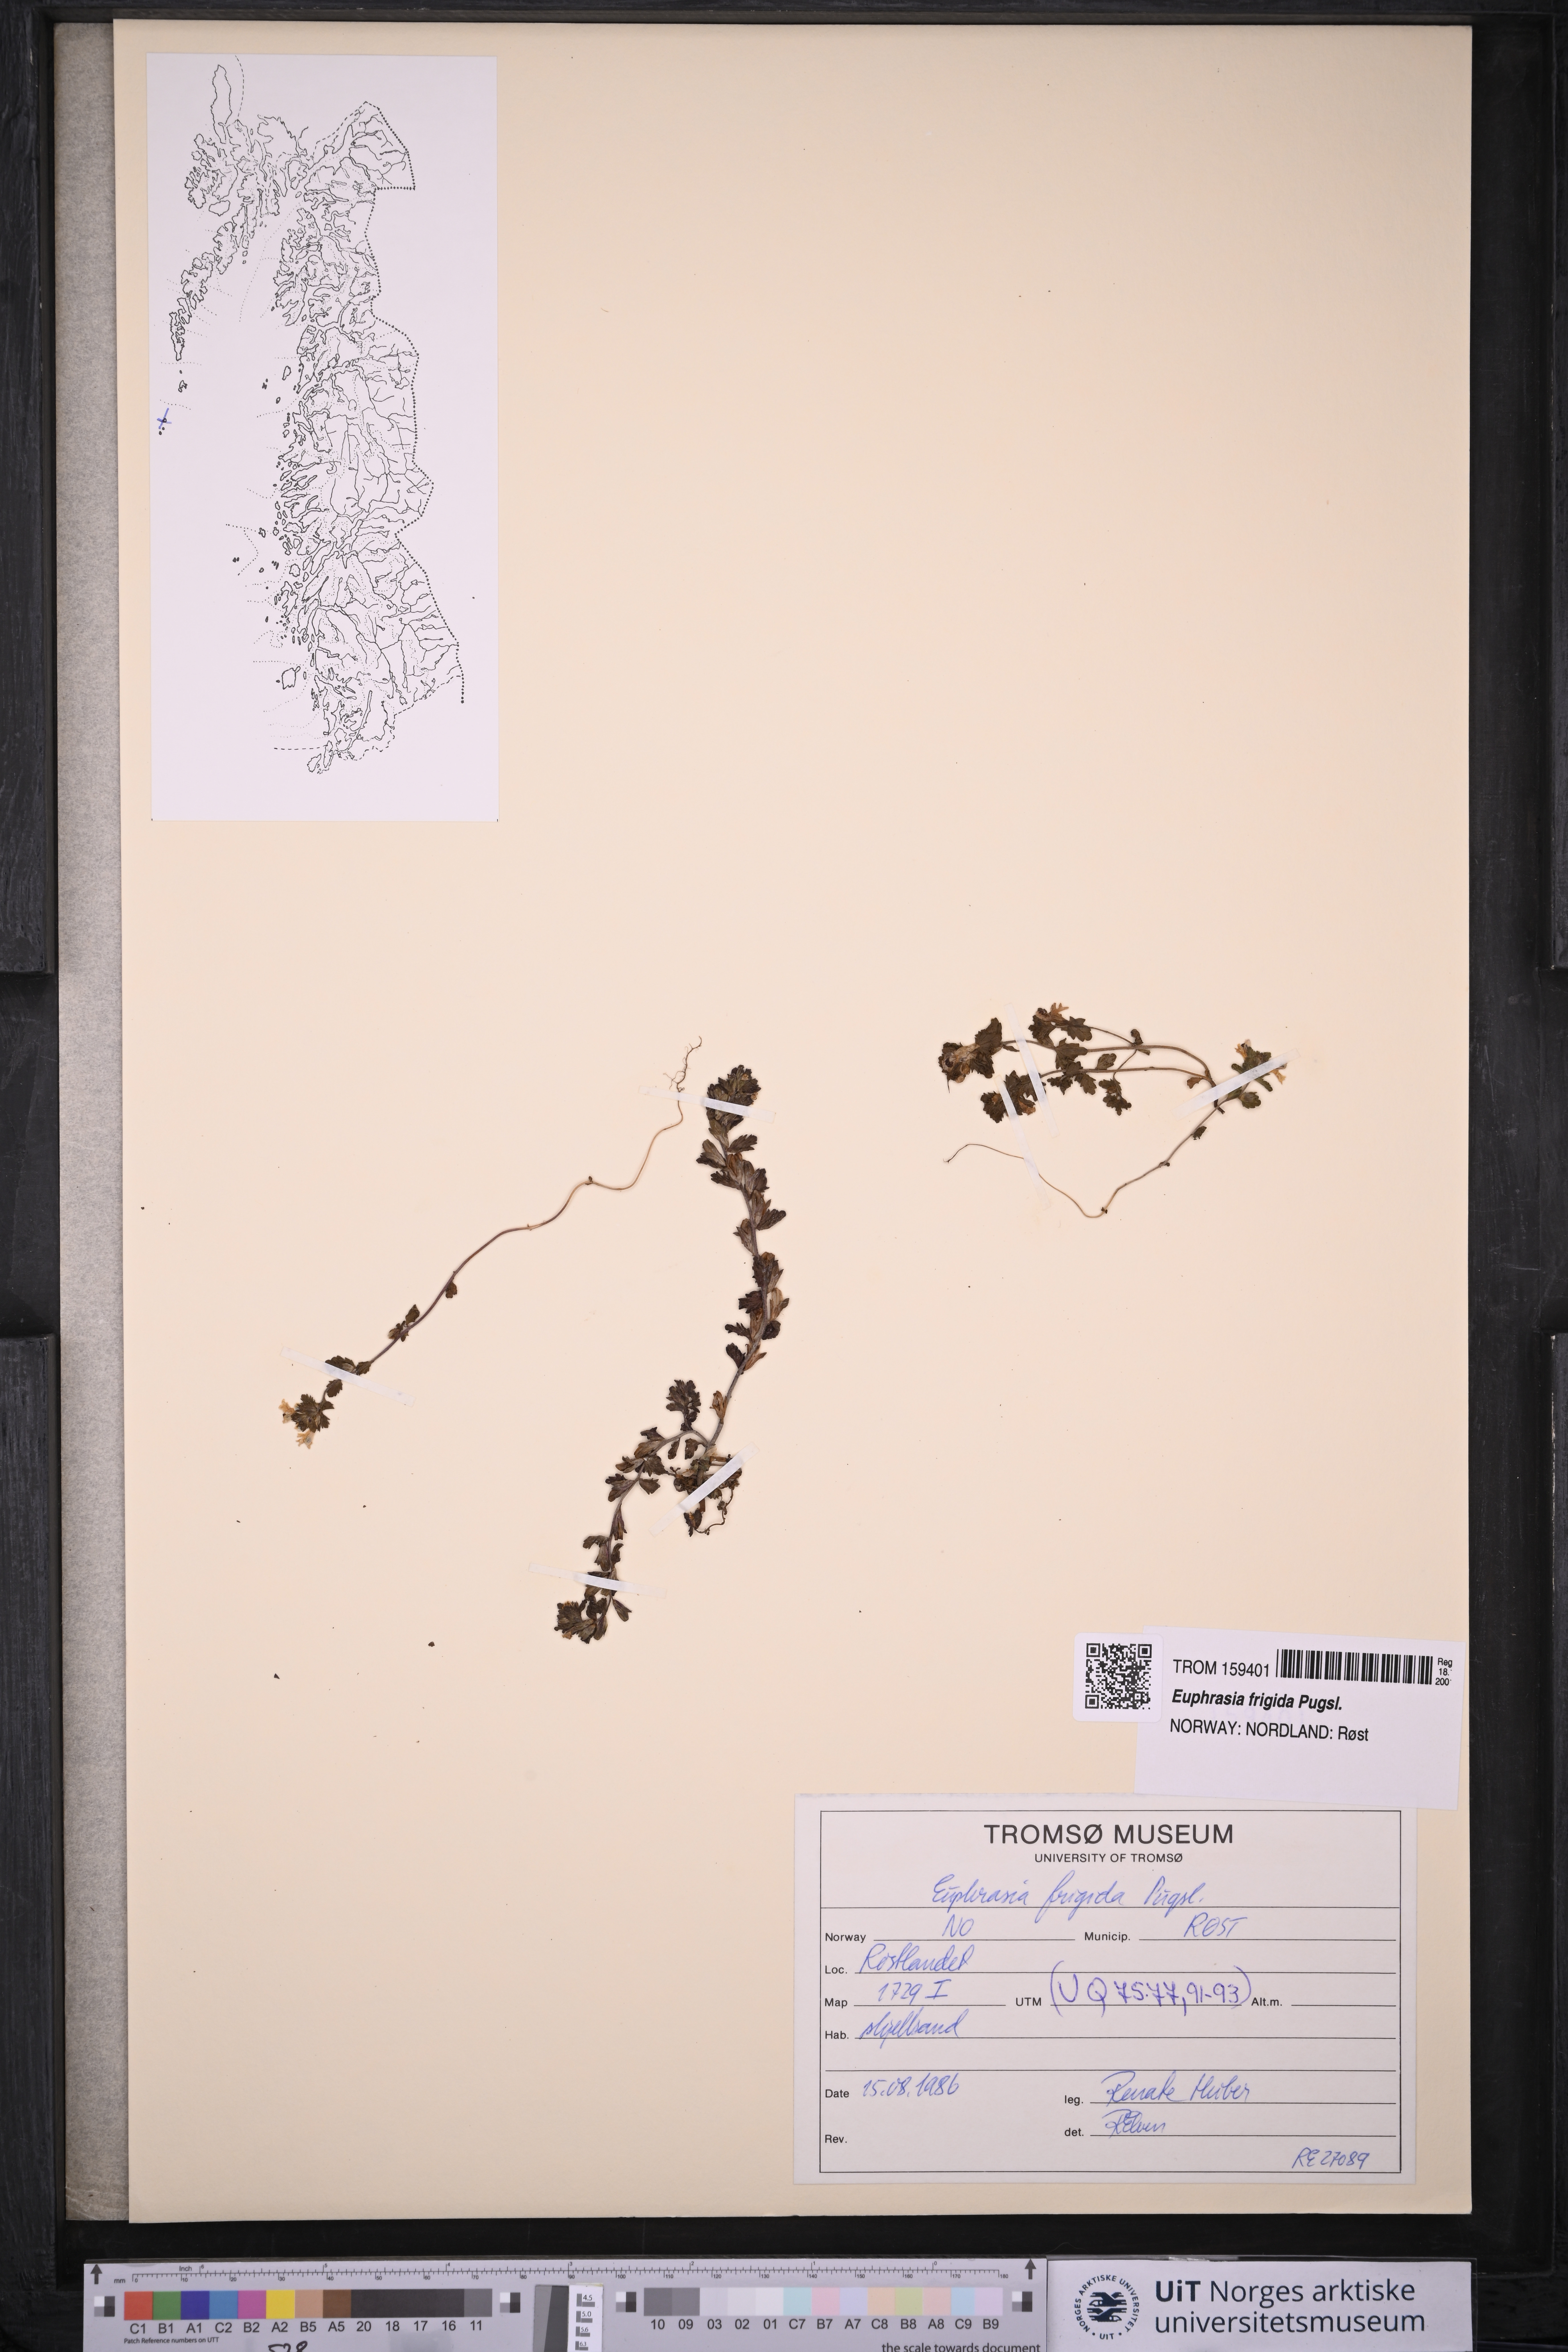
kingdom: Plantae
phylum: Tracheophyta
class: Magnoliopsida
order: Lamiales
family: Orobanchaceae
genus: Euphrasia
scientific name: Euphrasia frigida
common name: An eyebright
